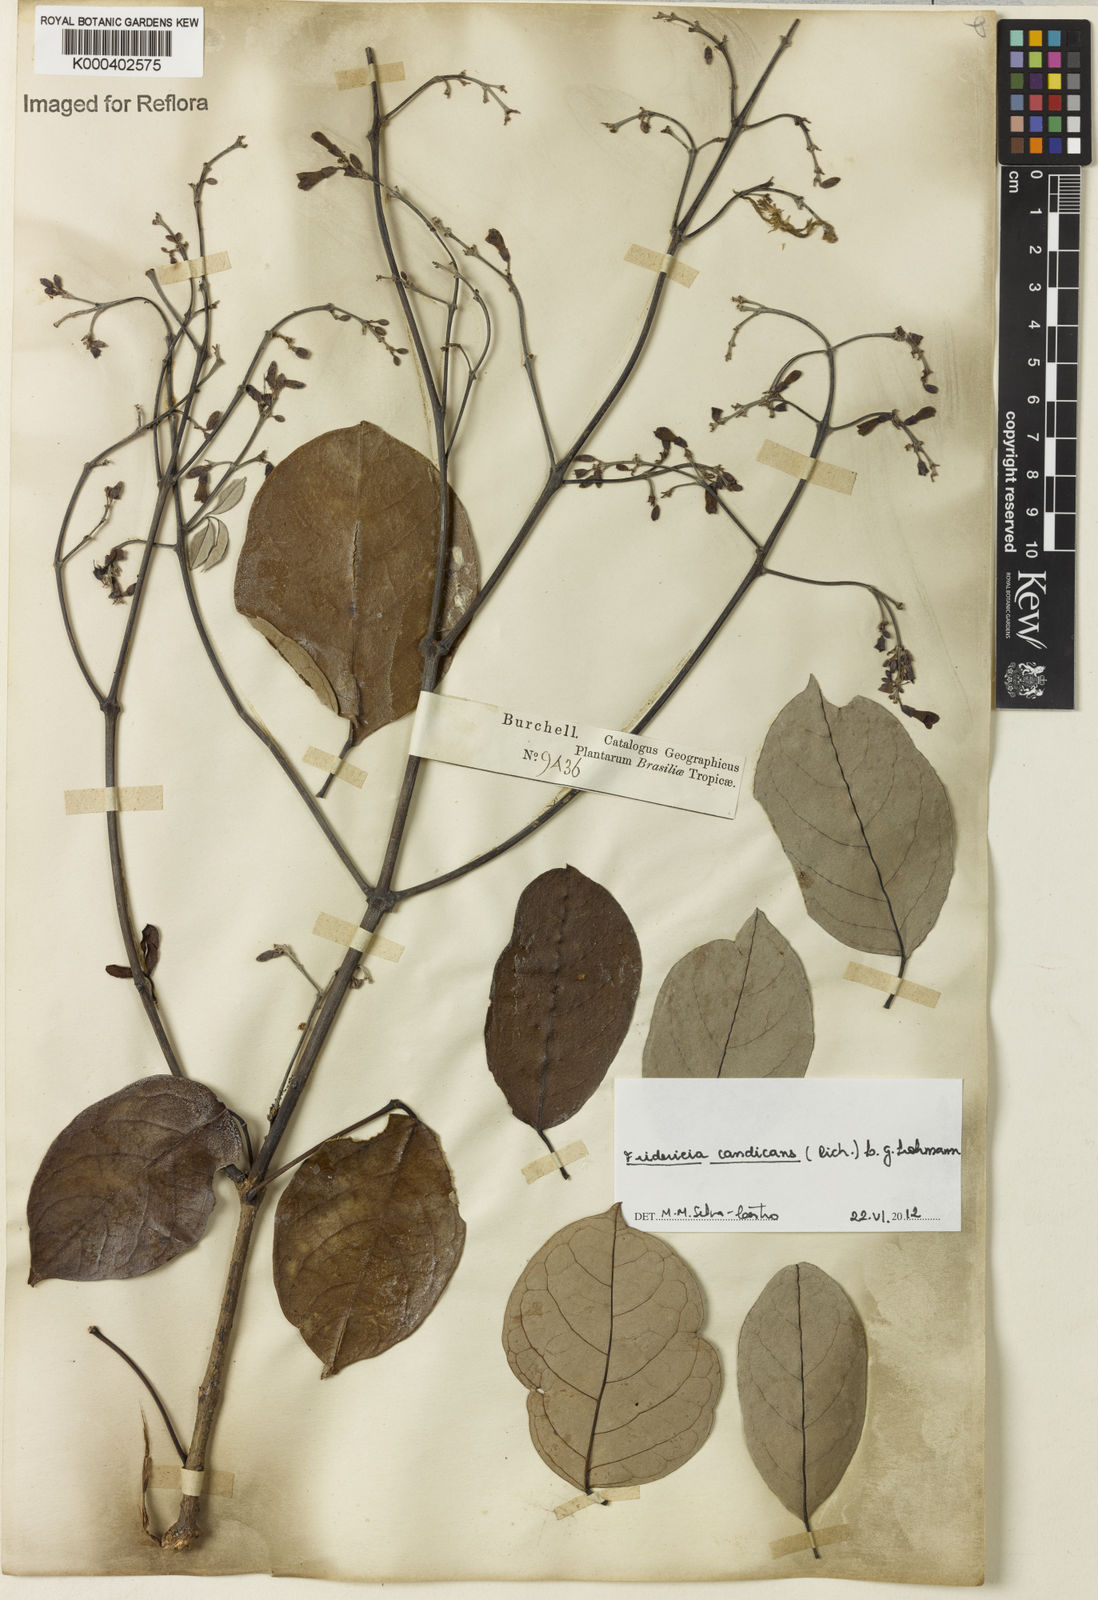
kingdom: Plantae
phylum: Tracheophyta
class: Magnoliopsida
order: Lamiales
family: Bignoniaceae
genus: Fridericia
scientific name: Fridericia
